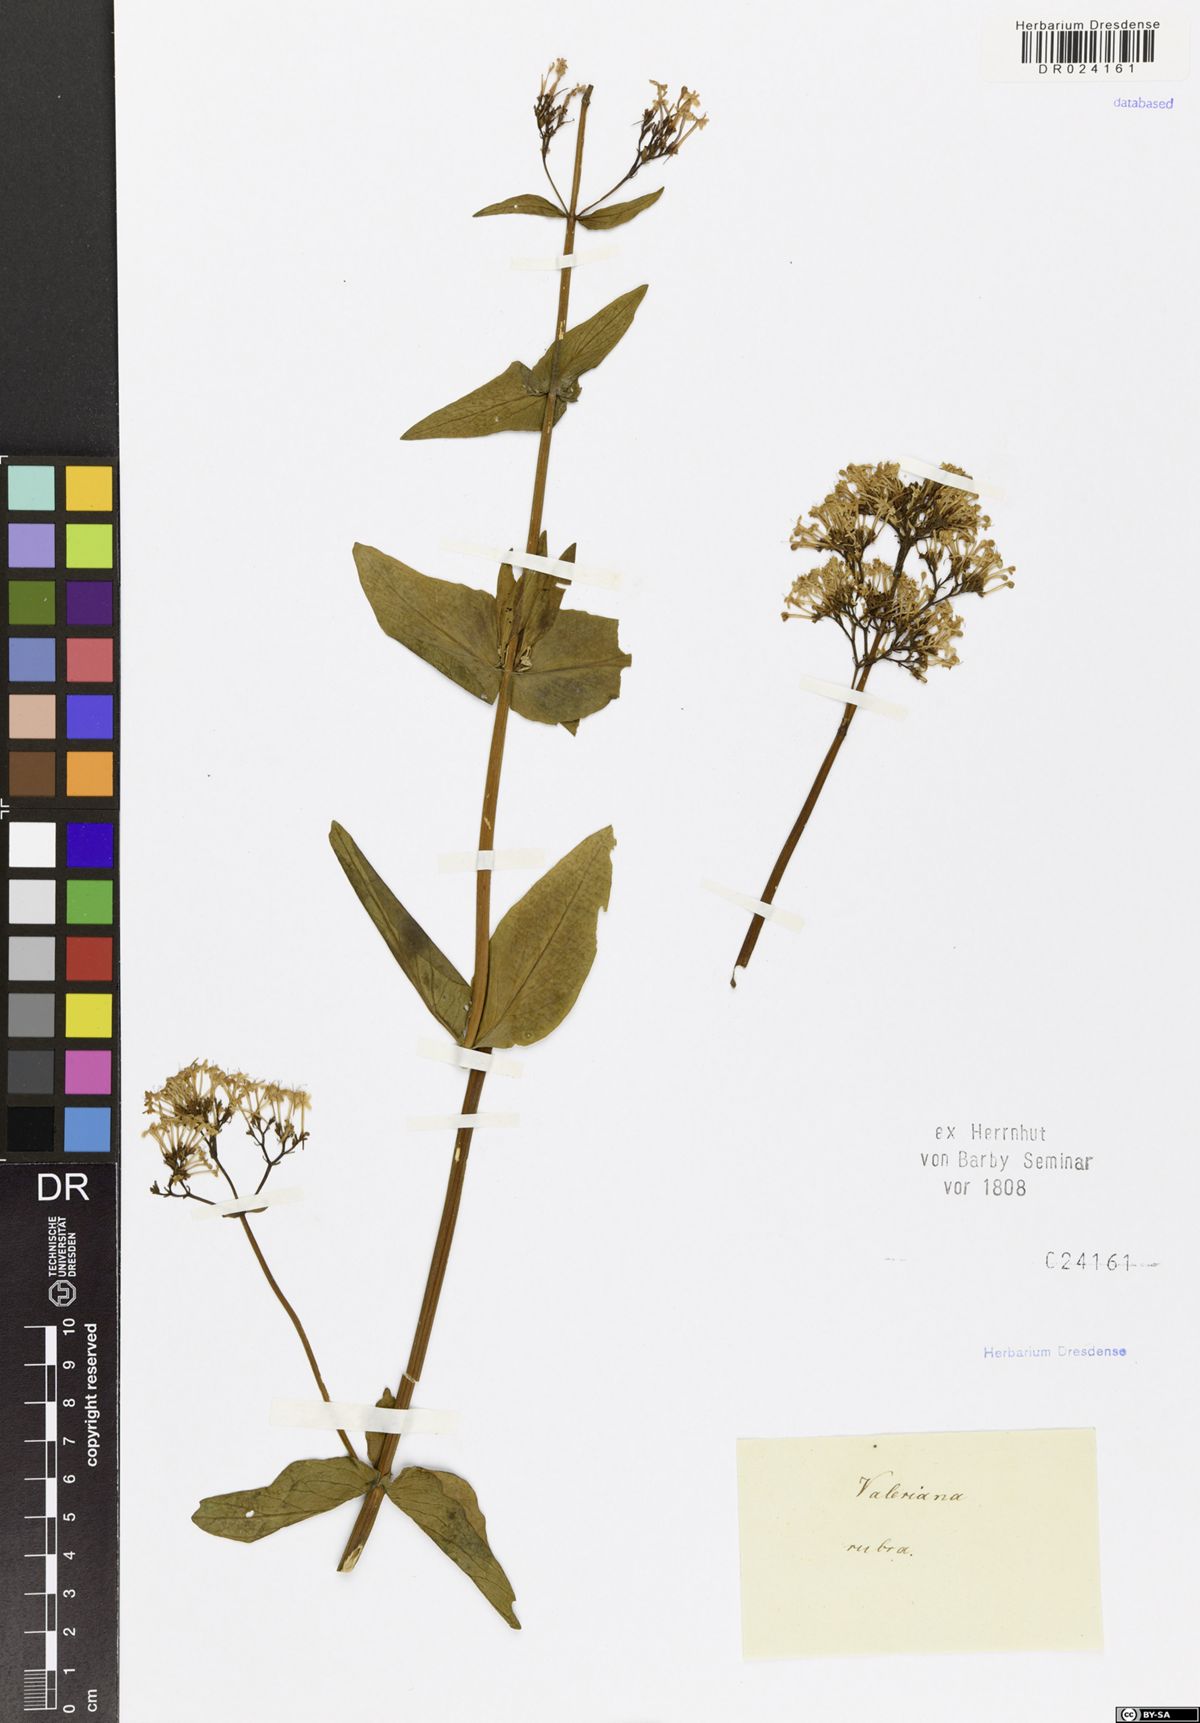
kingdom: Plantae
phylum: Tracheophyta
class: Magnoliopsida
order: Dipsacales
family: Caprifoliaceae
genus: Centranthus
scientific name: Centranthus ruber
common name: Red valerian
